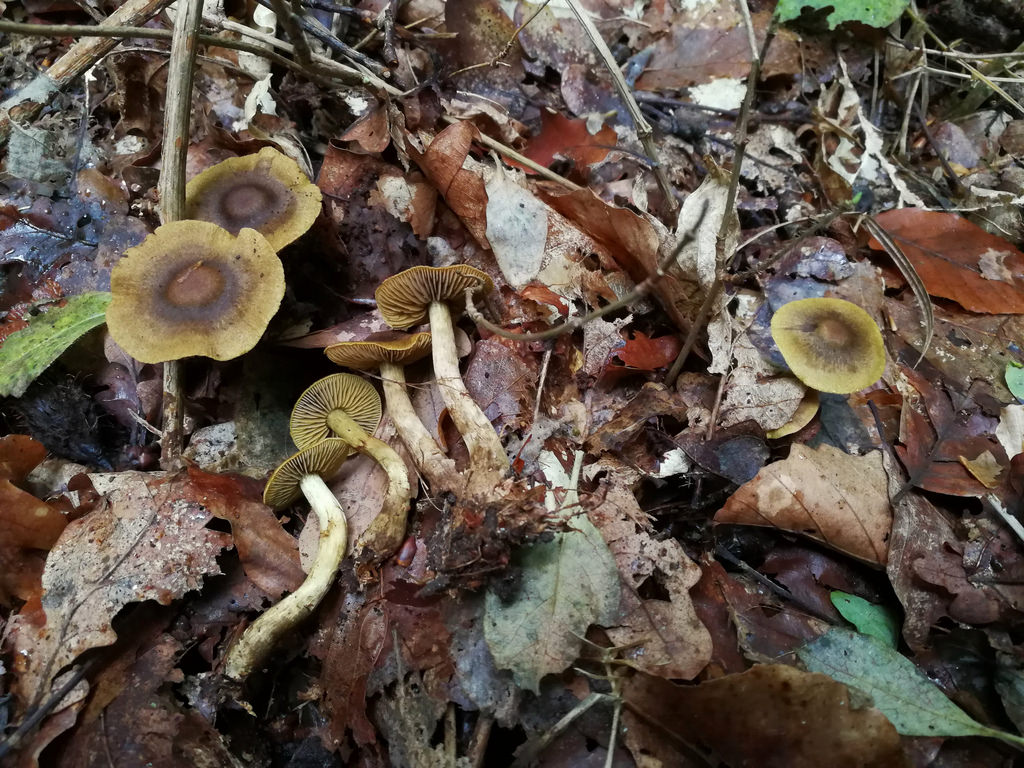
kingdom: Fungi
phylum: Basidiomycota
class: Agaricomycetes
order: Agaricales
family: Cortinariaceae
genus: Cortinarius
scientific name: Cortinarius olivaceofuscus
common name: olivenbrun slørhat
